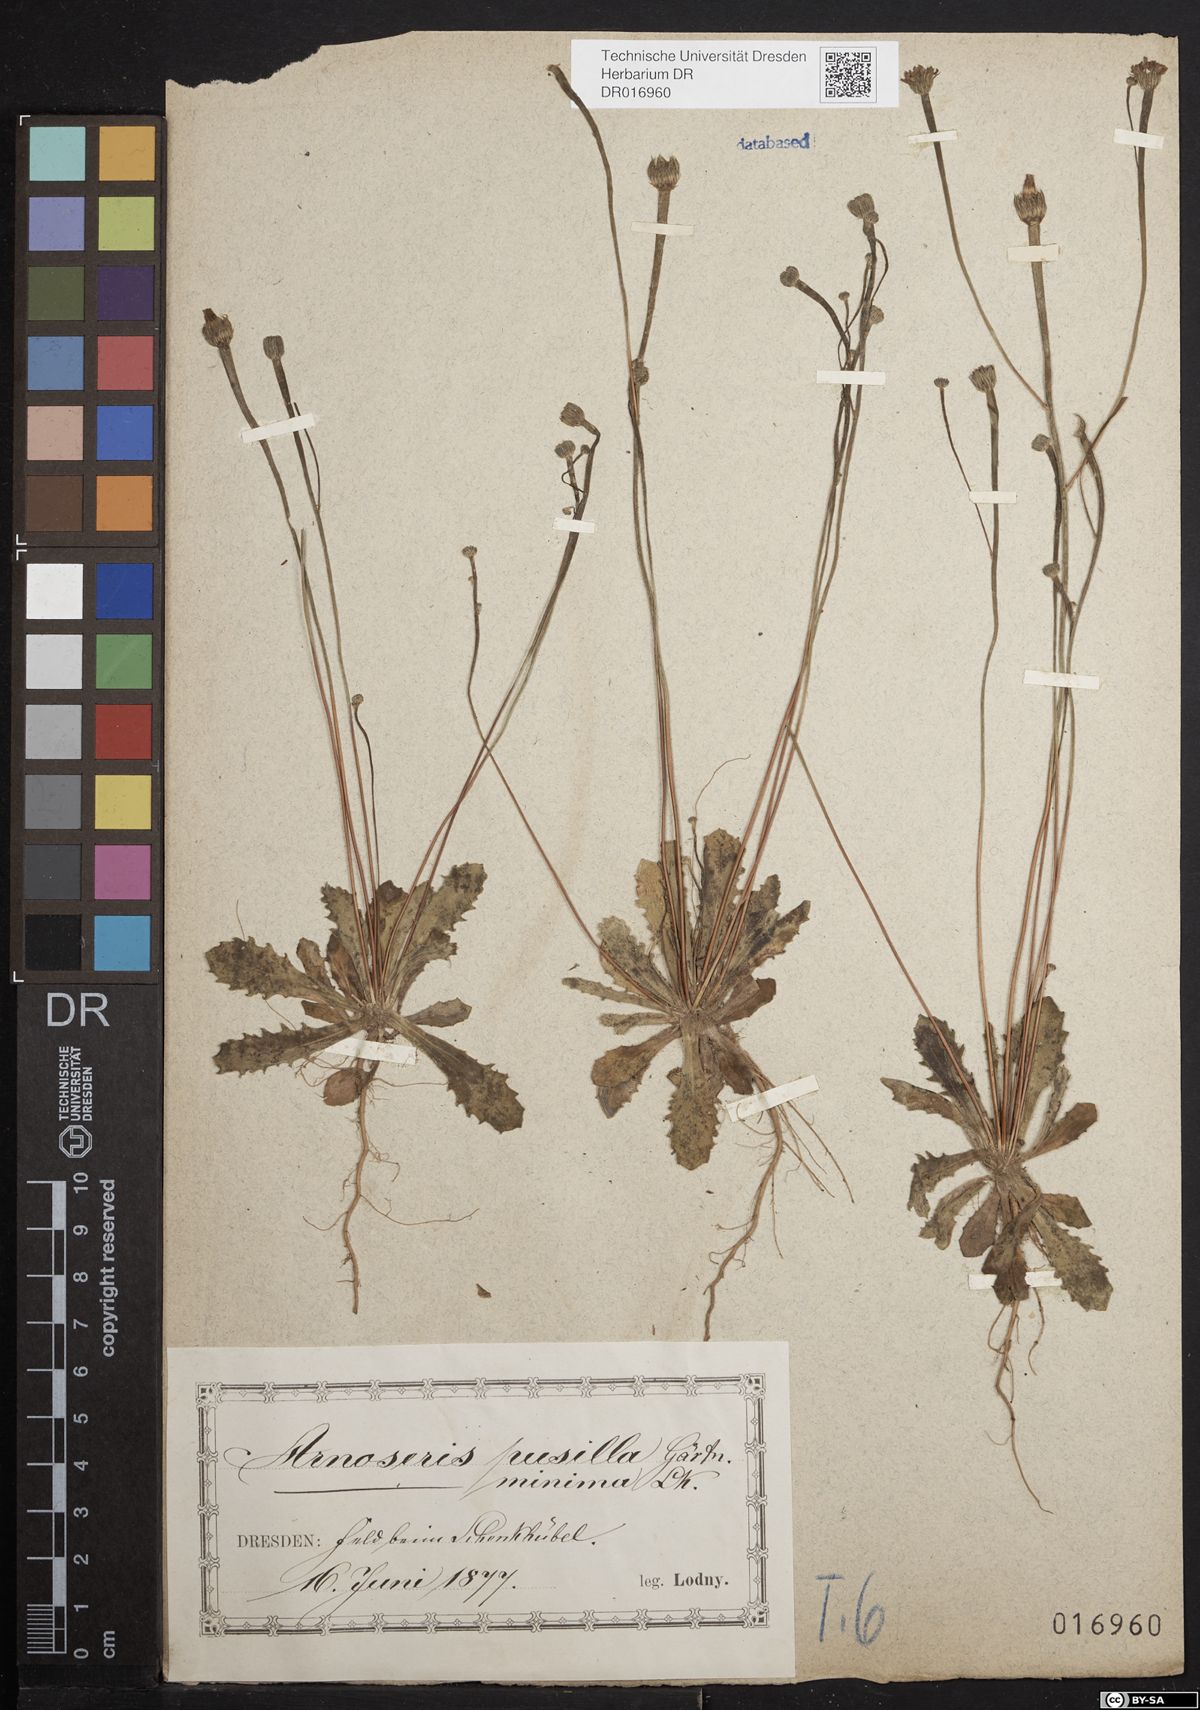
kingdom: Plantae
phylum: Tracheophyta
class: Magnoliopsida
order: Asterales
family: Asteraceae
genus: Arnoseris
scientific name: Arnoseris minima
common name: Lamb's succory
